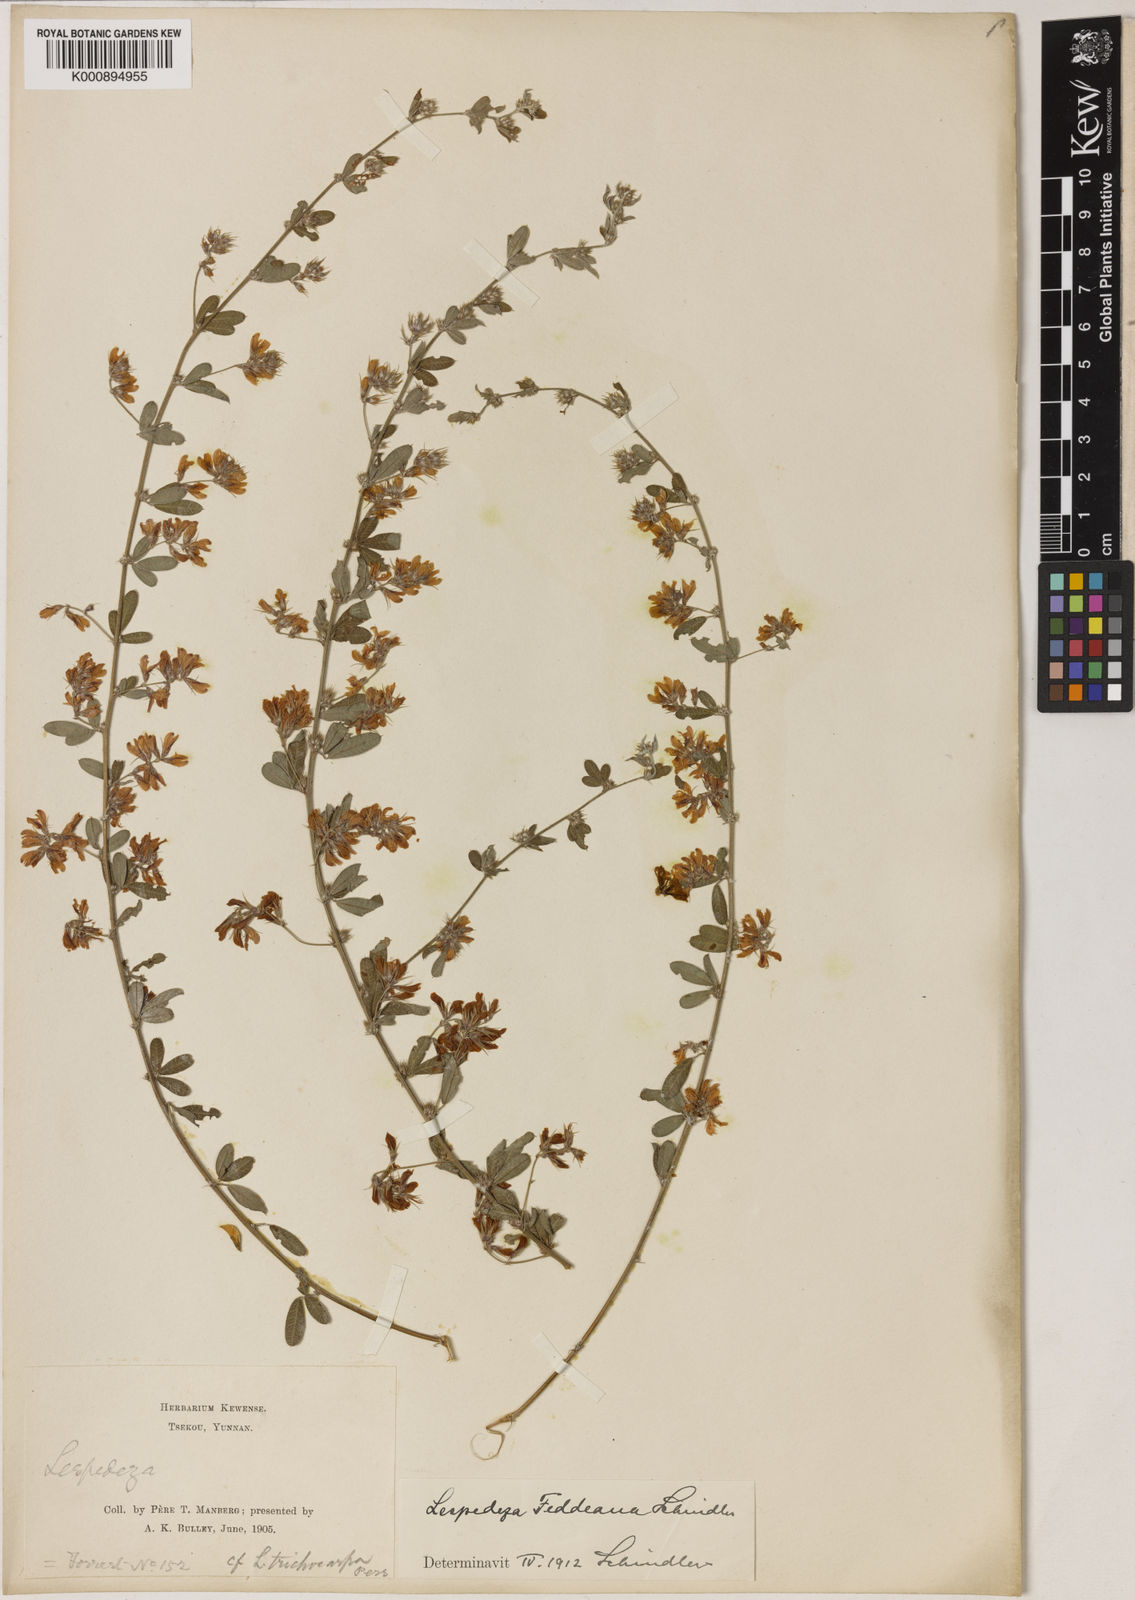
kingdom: Plantae
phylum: Tracheophyta
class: Magnoliopsida
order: Fabales
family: Fabaceae
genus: Lespedeza
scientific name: Lespedeza daurica
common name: Dahurian lespedeza
